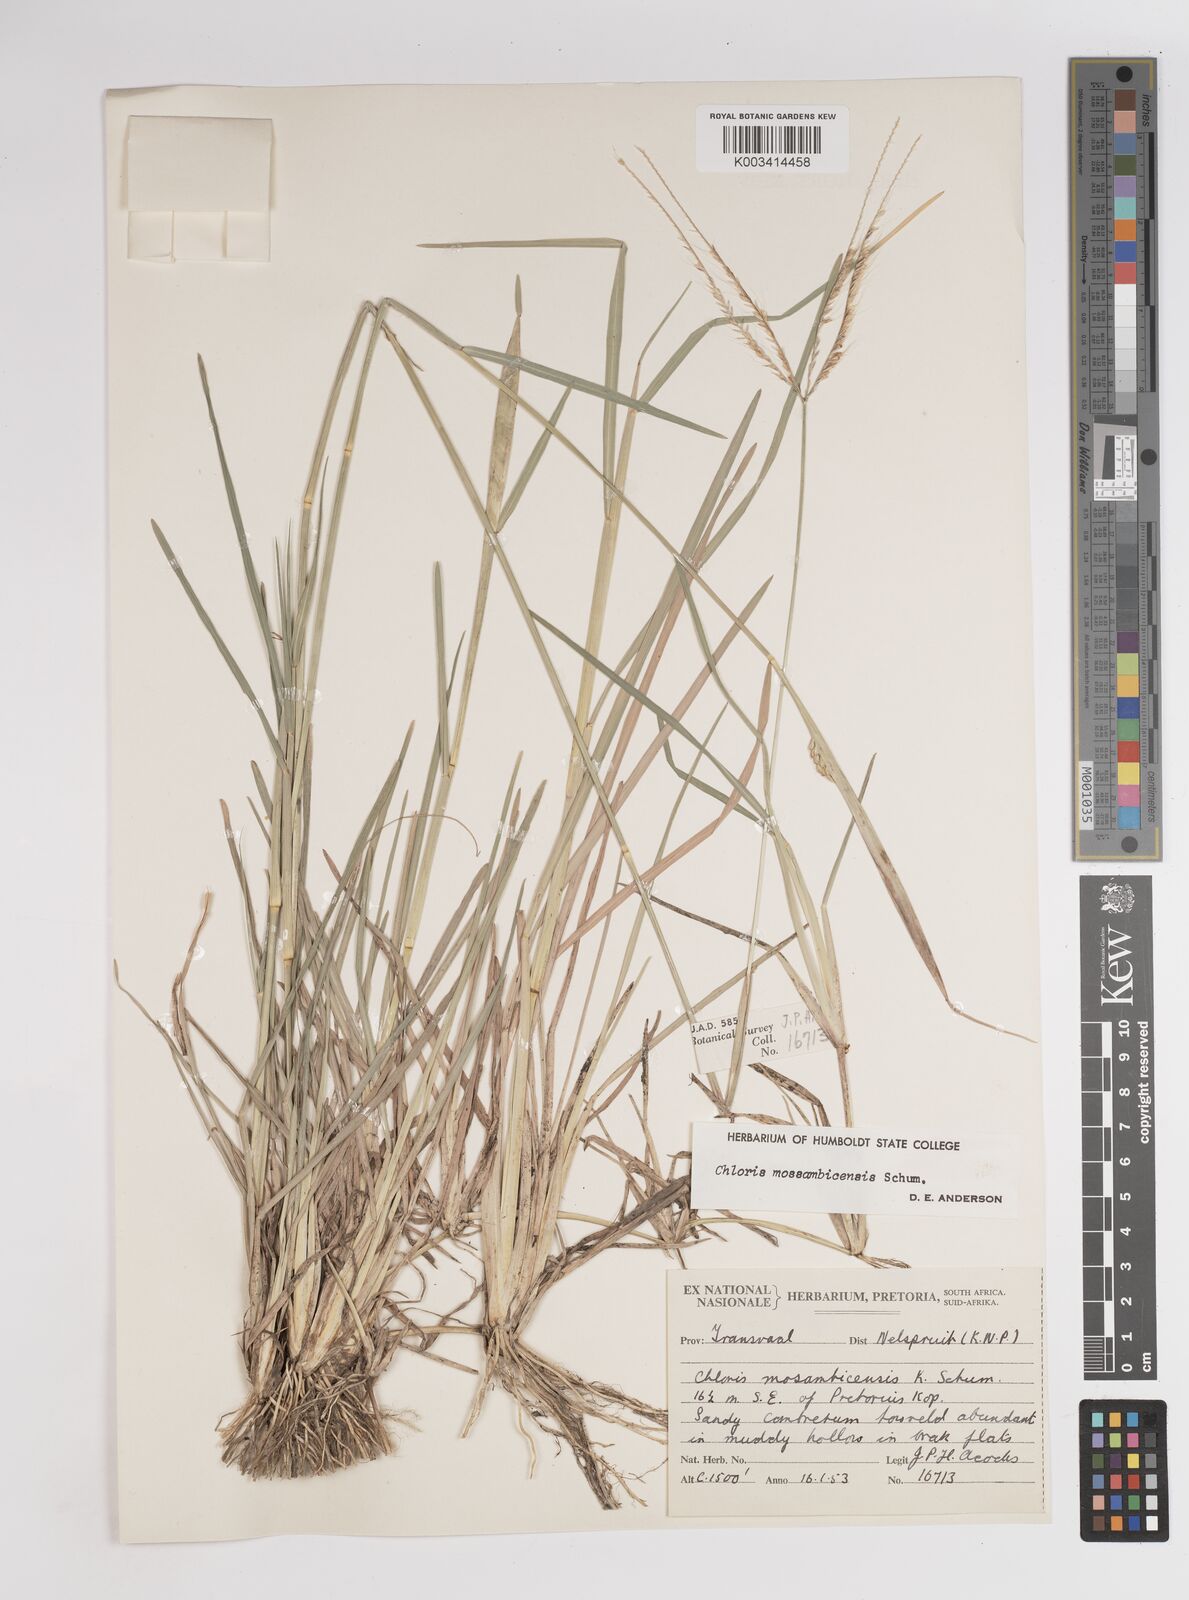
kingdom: Plantae
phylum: Tracheophyta
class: Liliopsida
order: Poales
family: Poaceae
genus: Chloris
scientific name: Chloris mossambicensis
